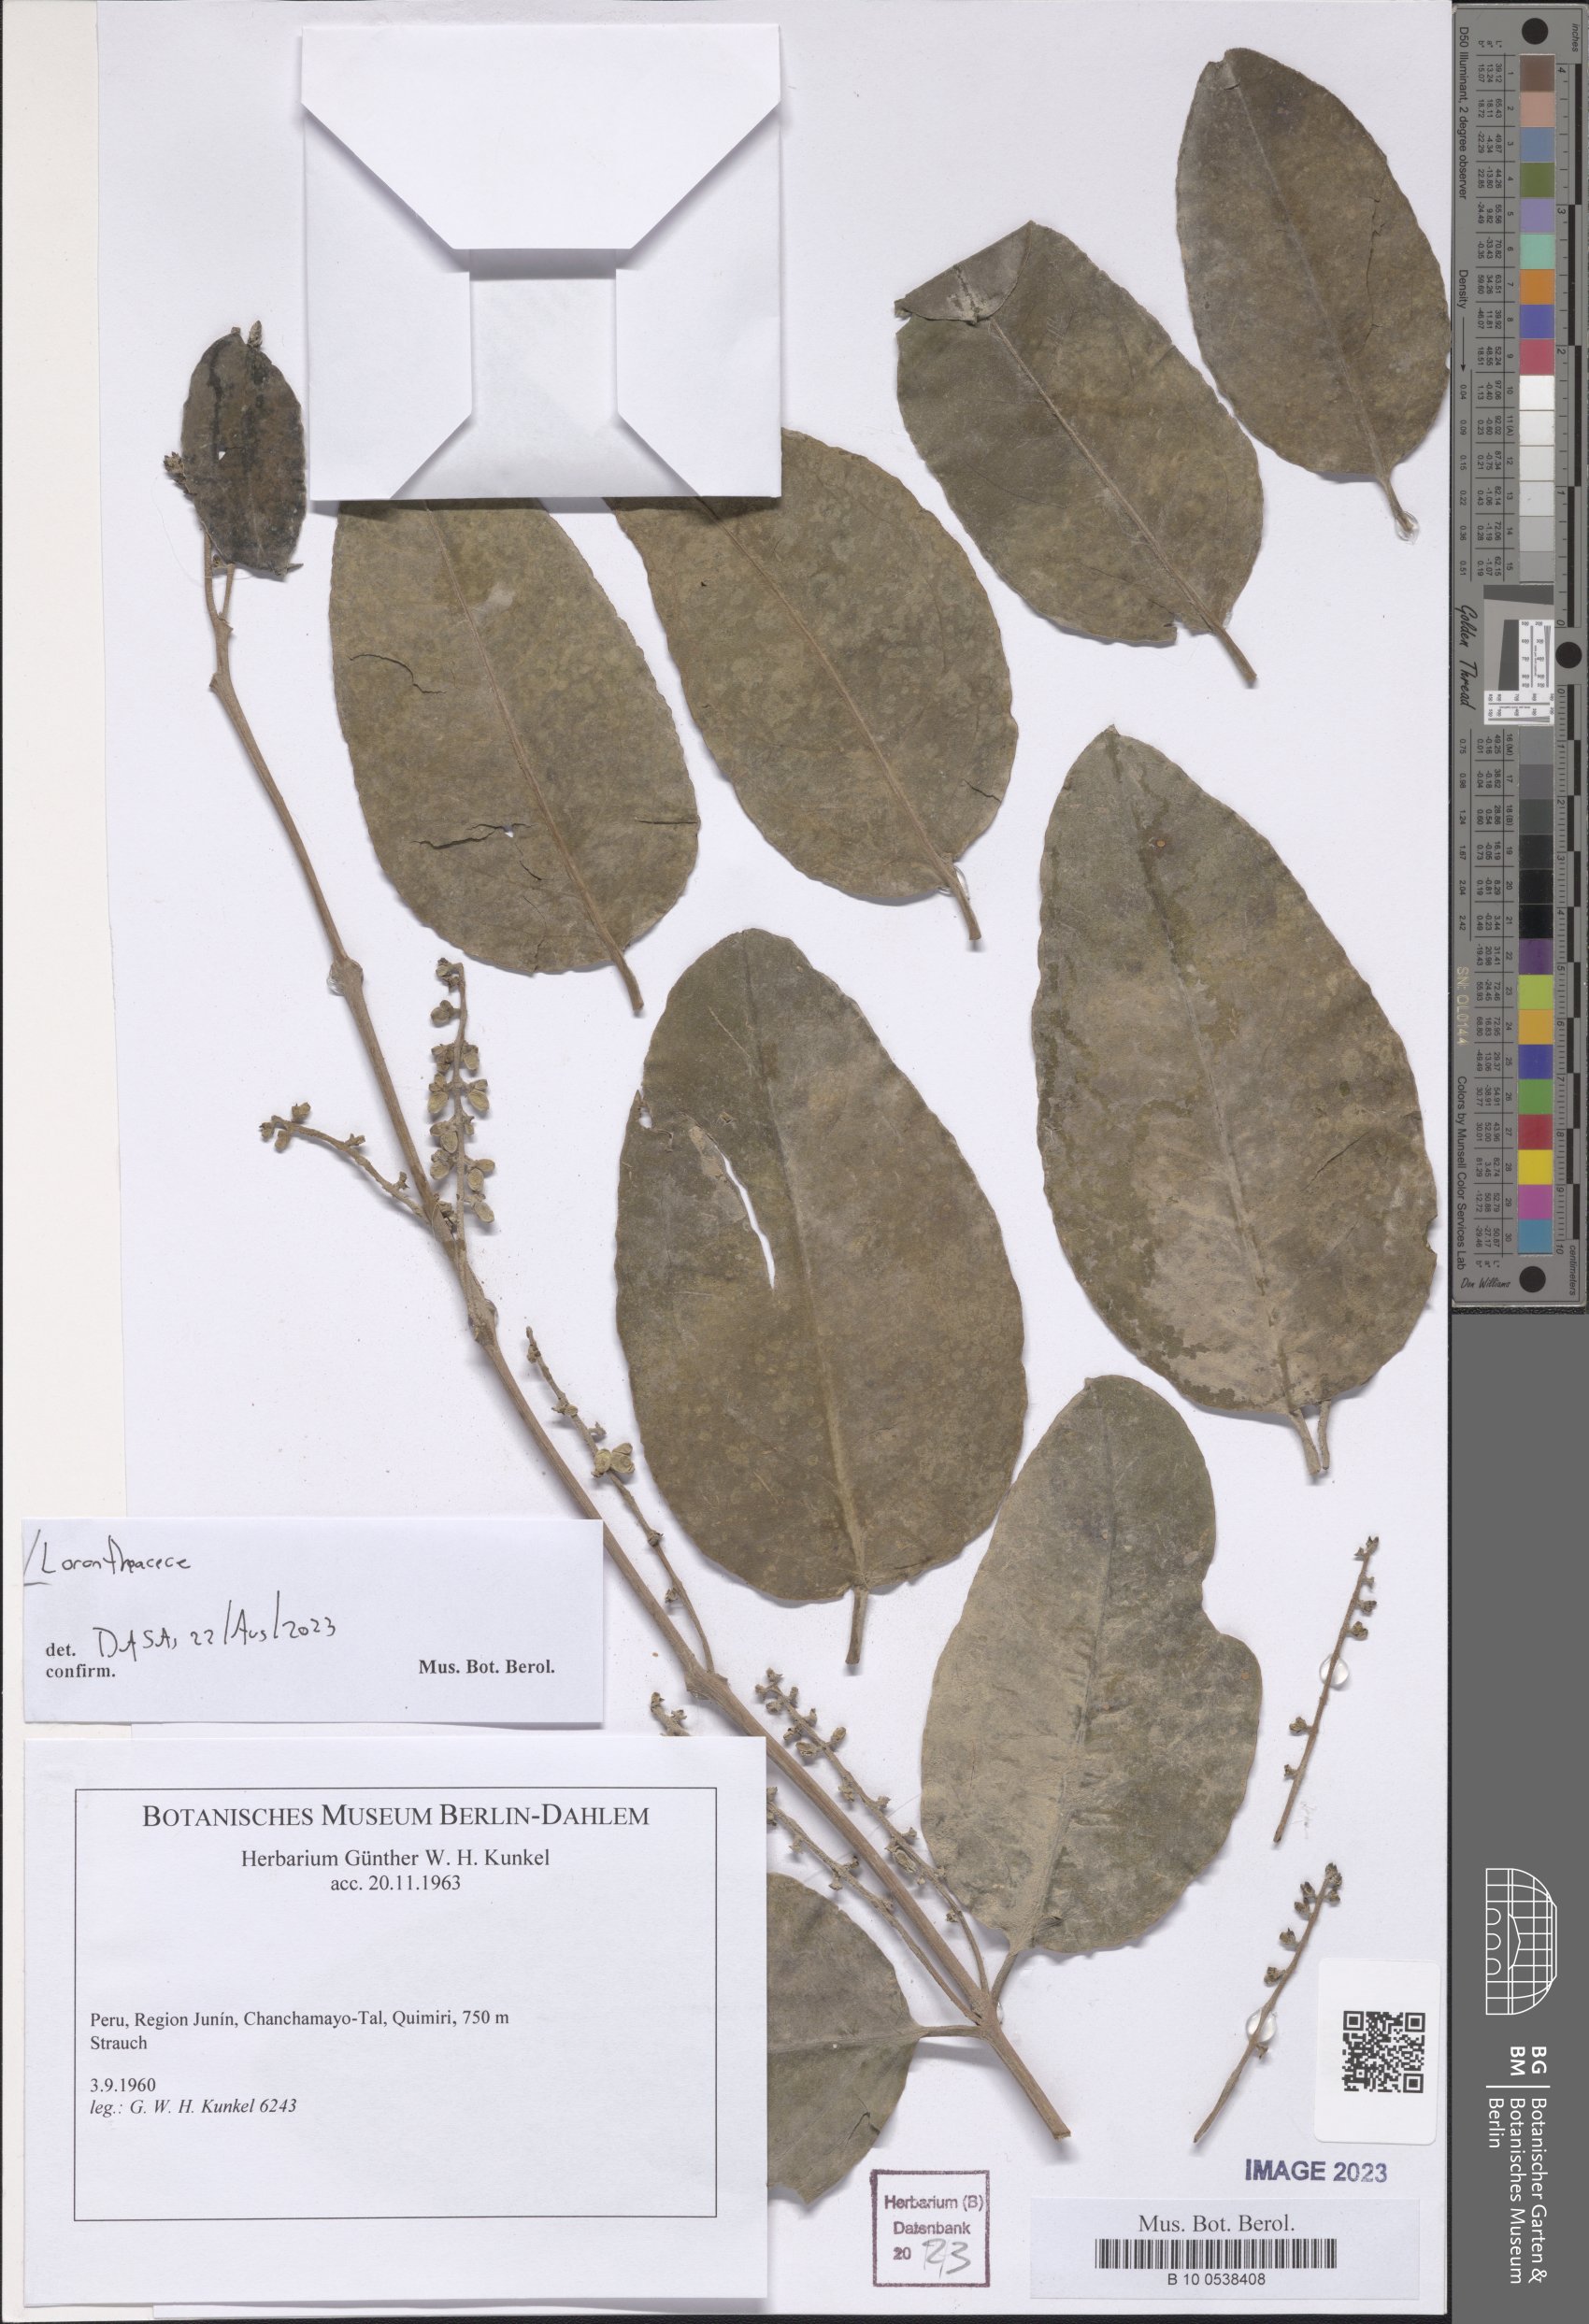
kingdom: Plantae
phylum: Tracheophyta
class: Magnoliopsida
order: Santalales
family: Loranthaceae
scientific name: Loranthaceae
